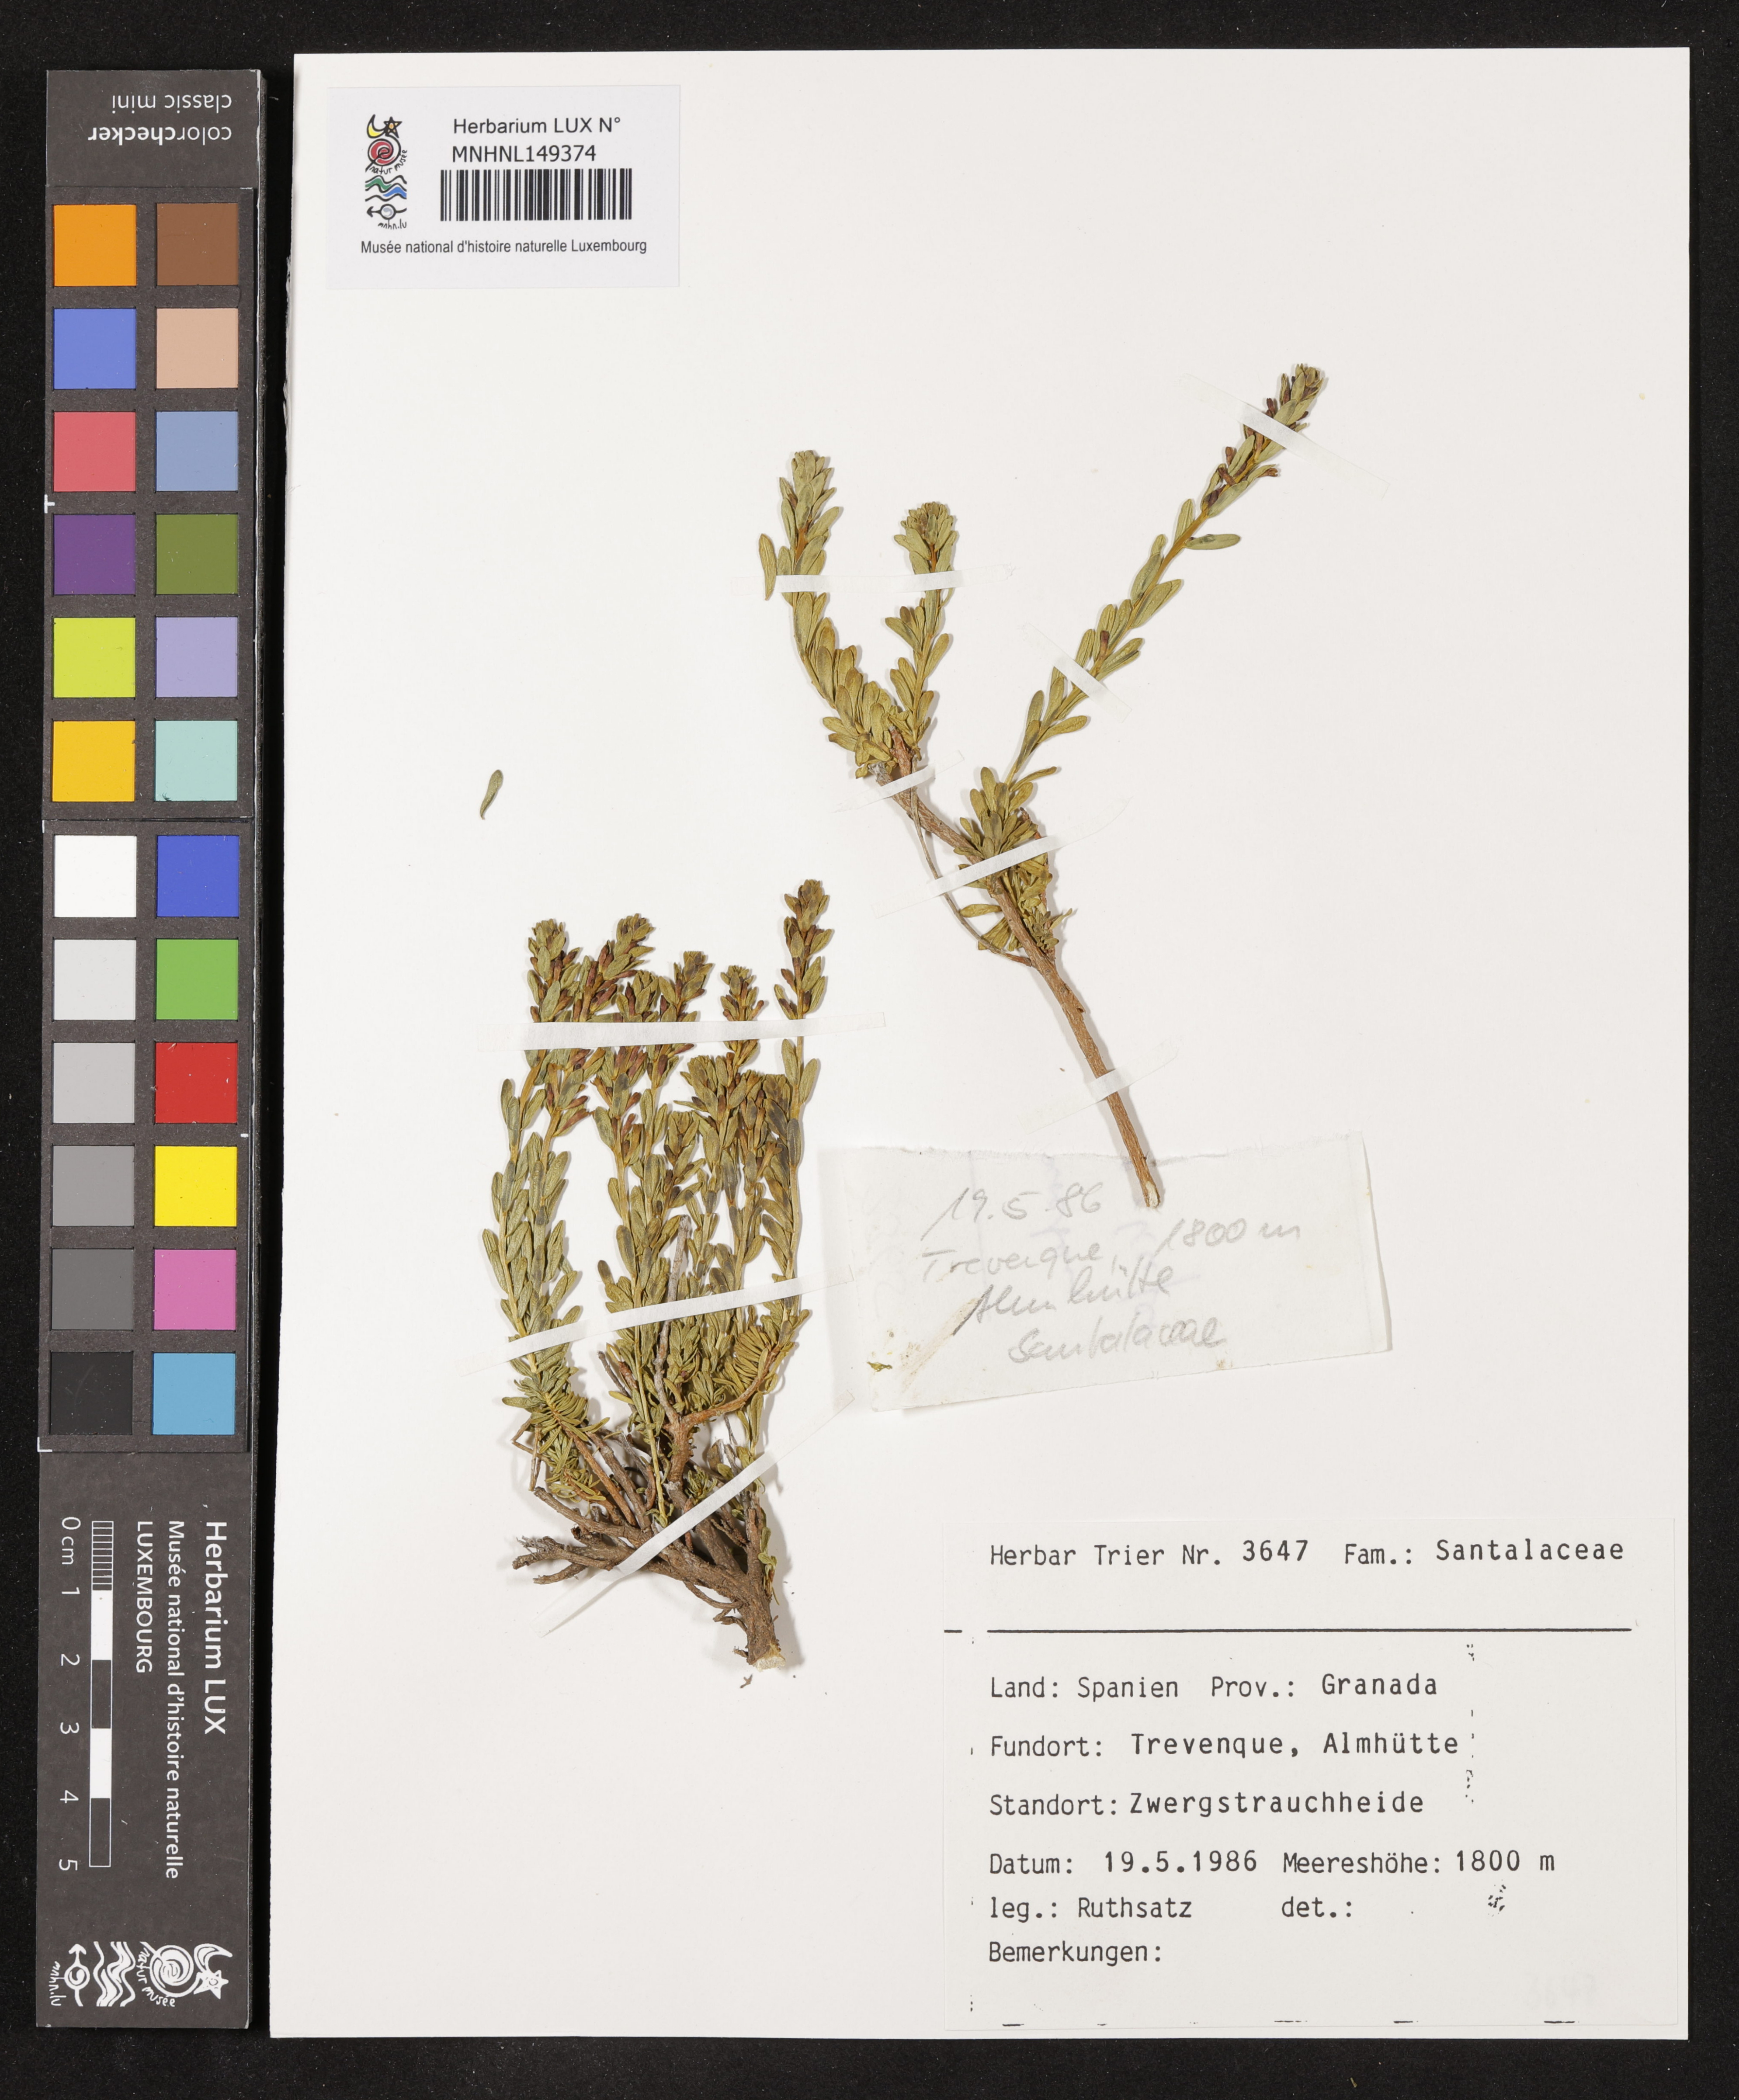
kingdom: Plantae
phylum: Tracheophyta
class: Magnoliopsida
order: Santalales
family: Santalaceae
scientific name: Santalaceae
